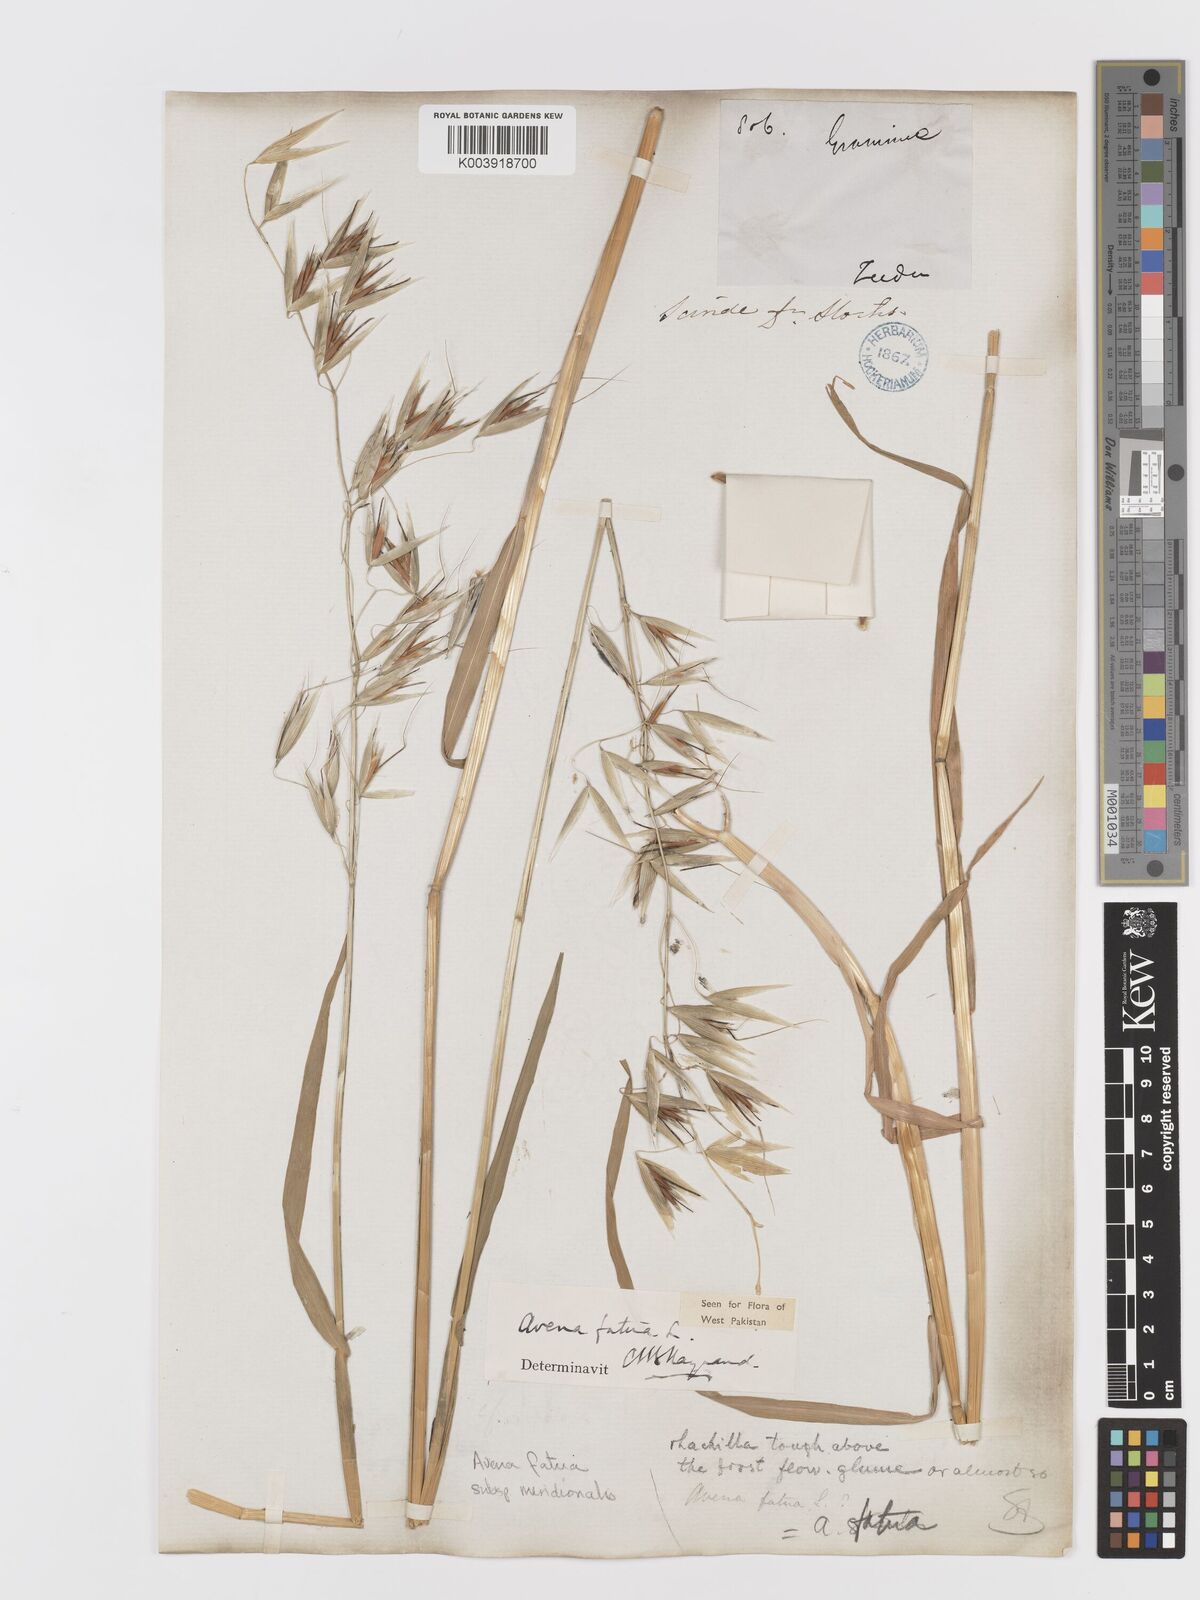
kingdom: Plantae
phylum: Tracheophyta
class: Liliopsida
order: Poales
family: Poaceae
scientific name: Poaceae
